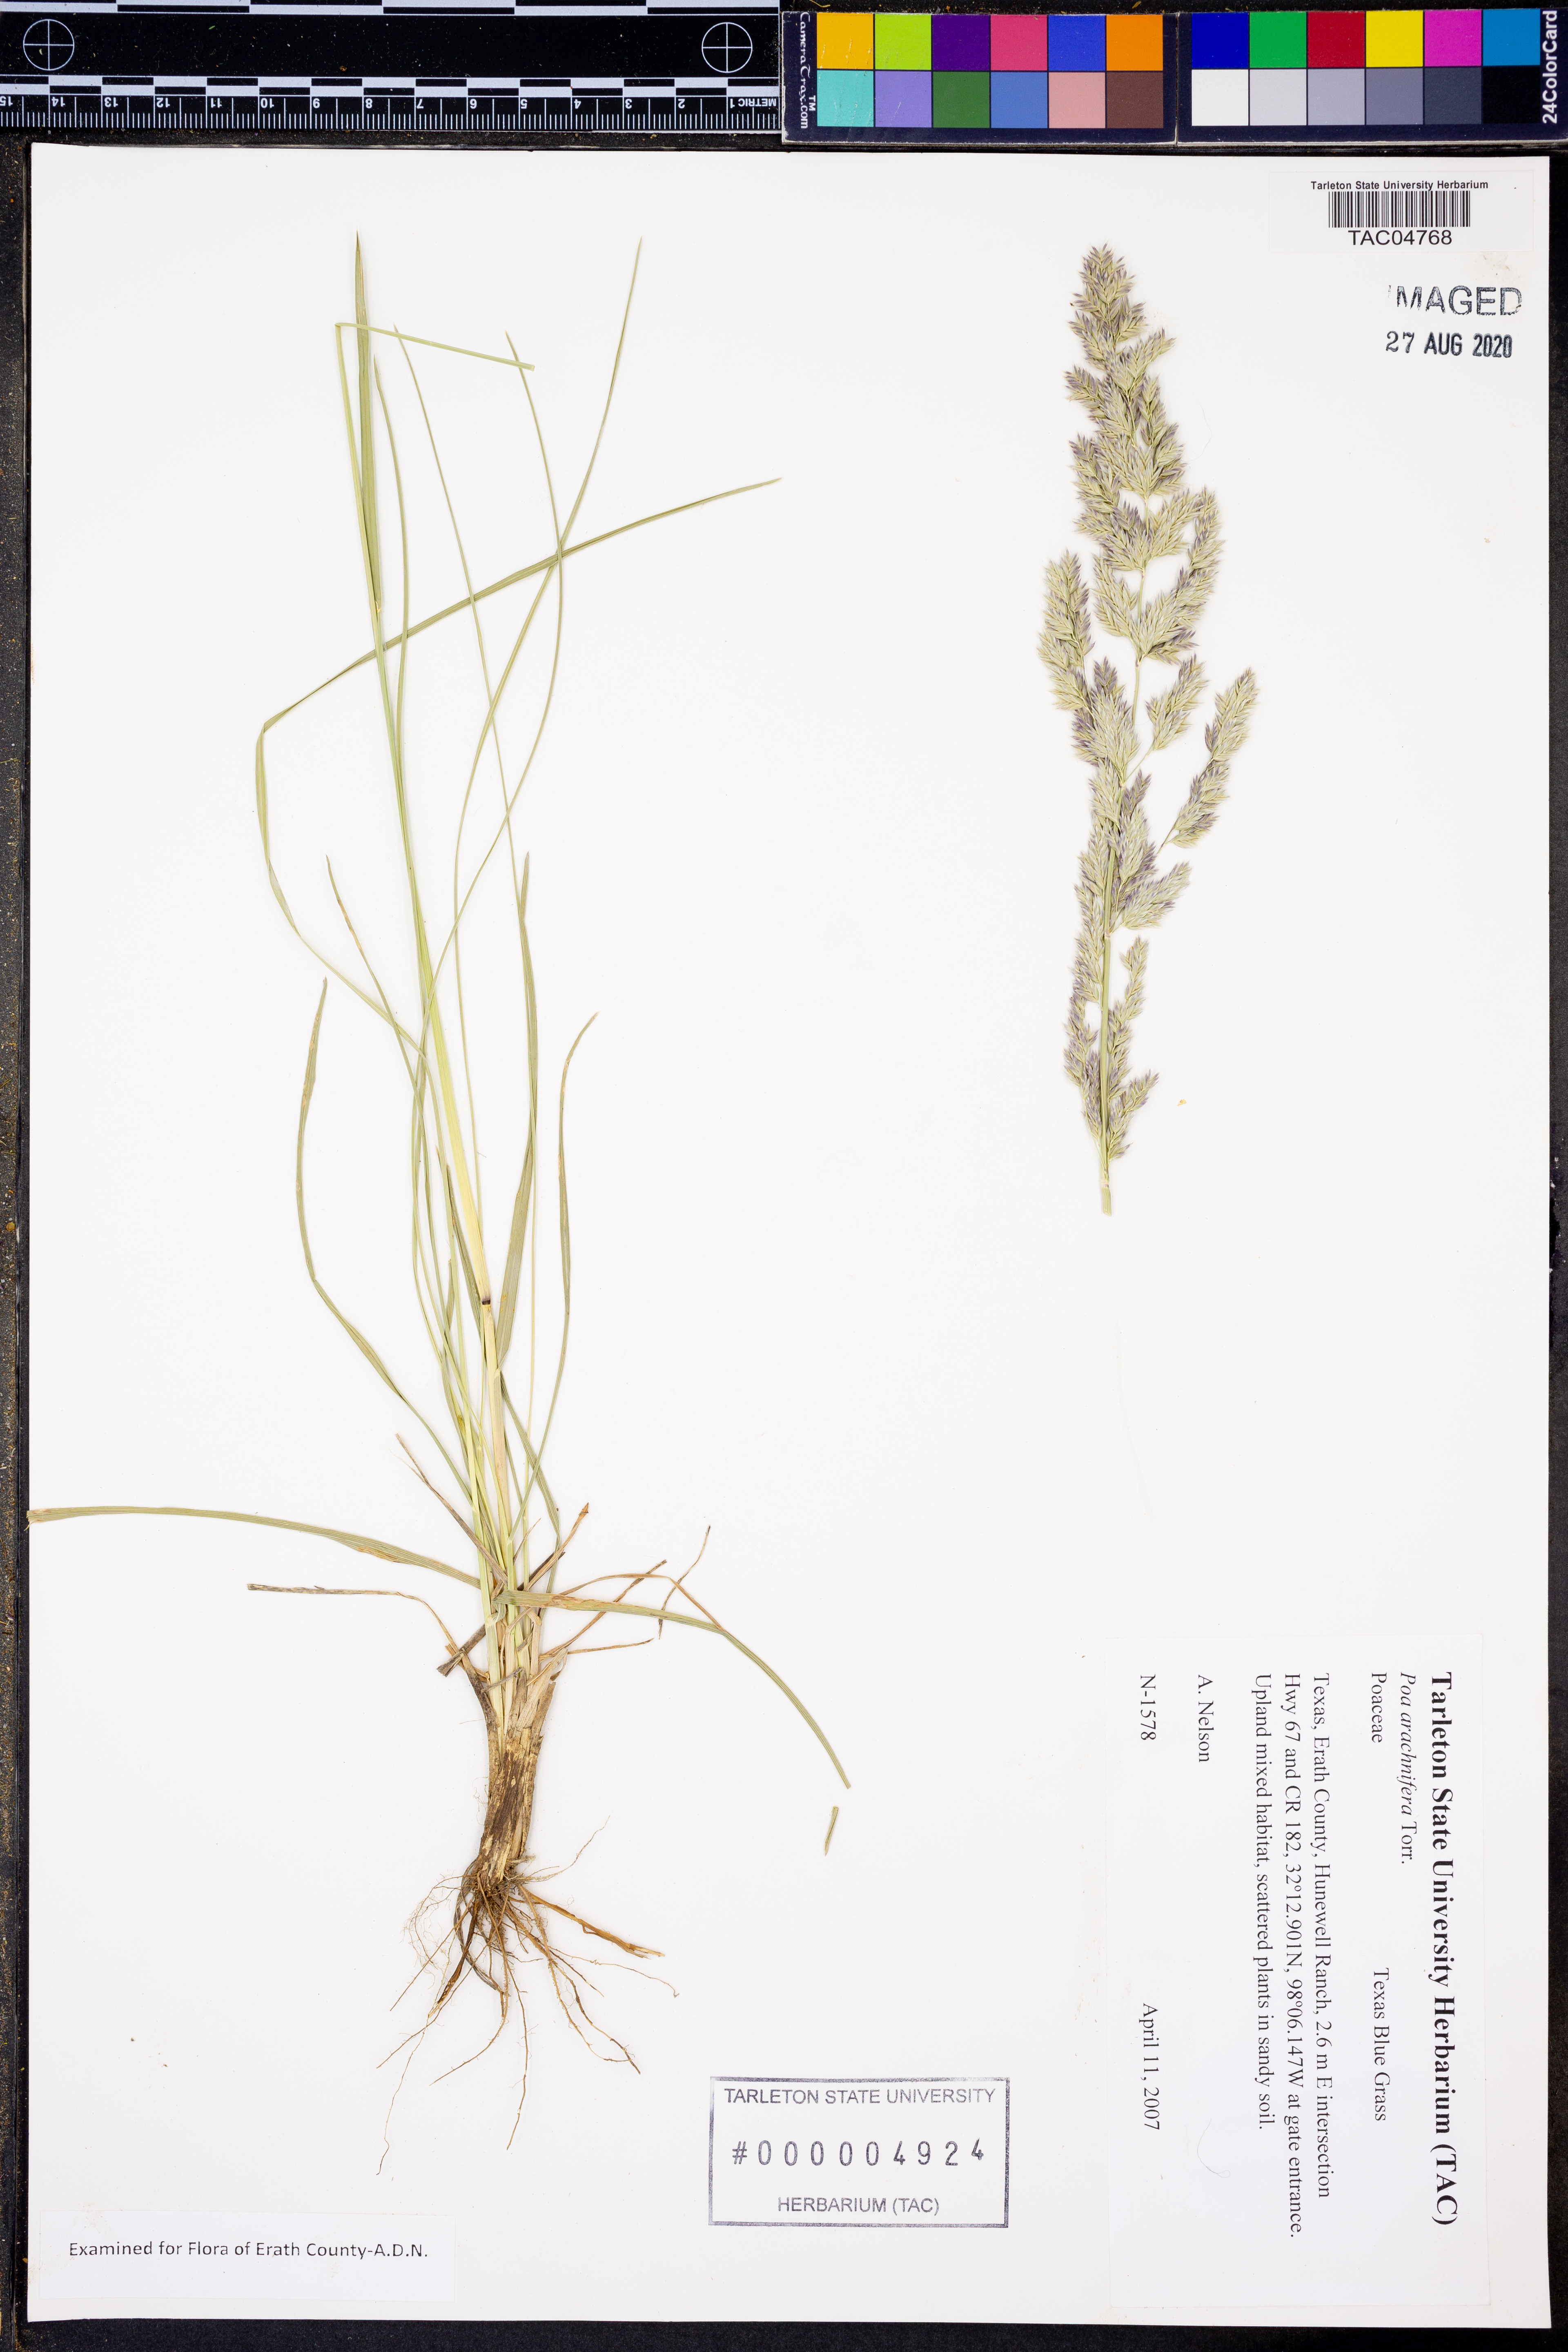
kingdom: Plantae
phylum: Tracheophyta
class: Liliopsida
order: Poales
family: Poaceae
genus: Poa
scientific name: Poa arachnifera
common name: Texas bluegrass
